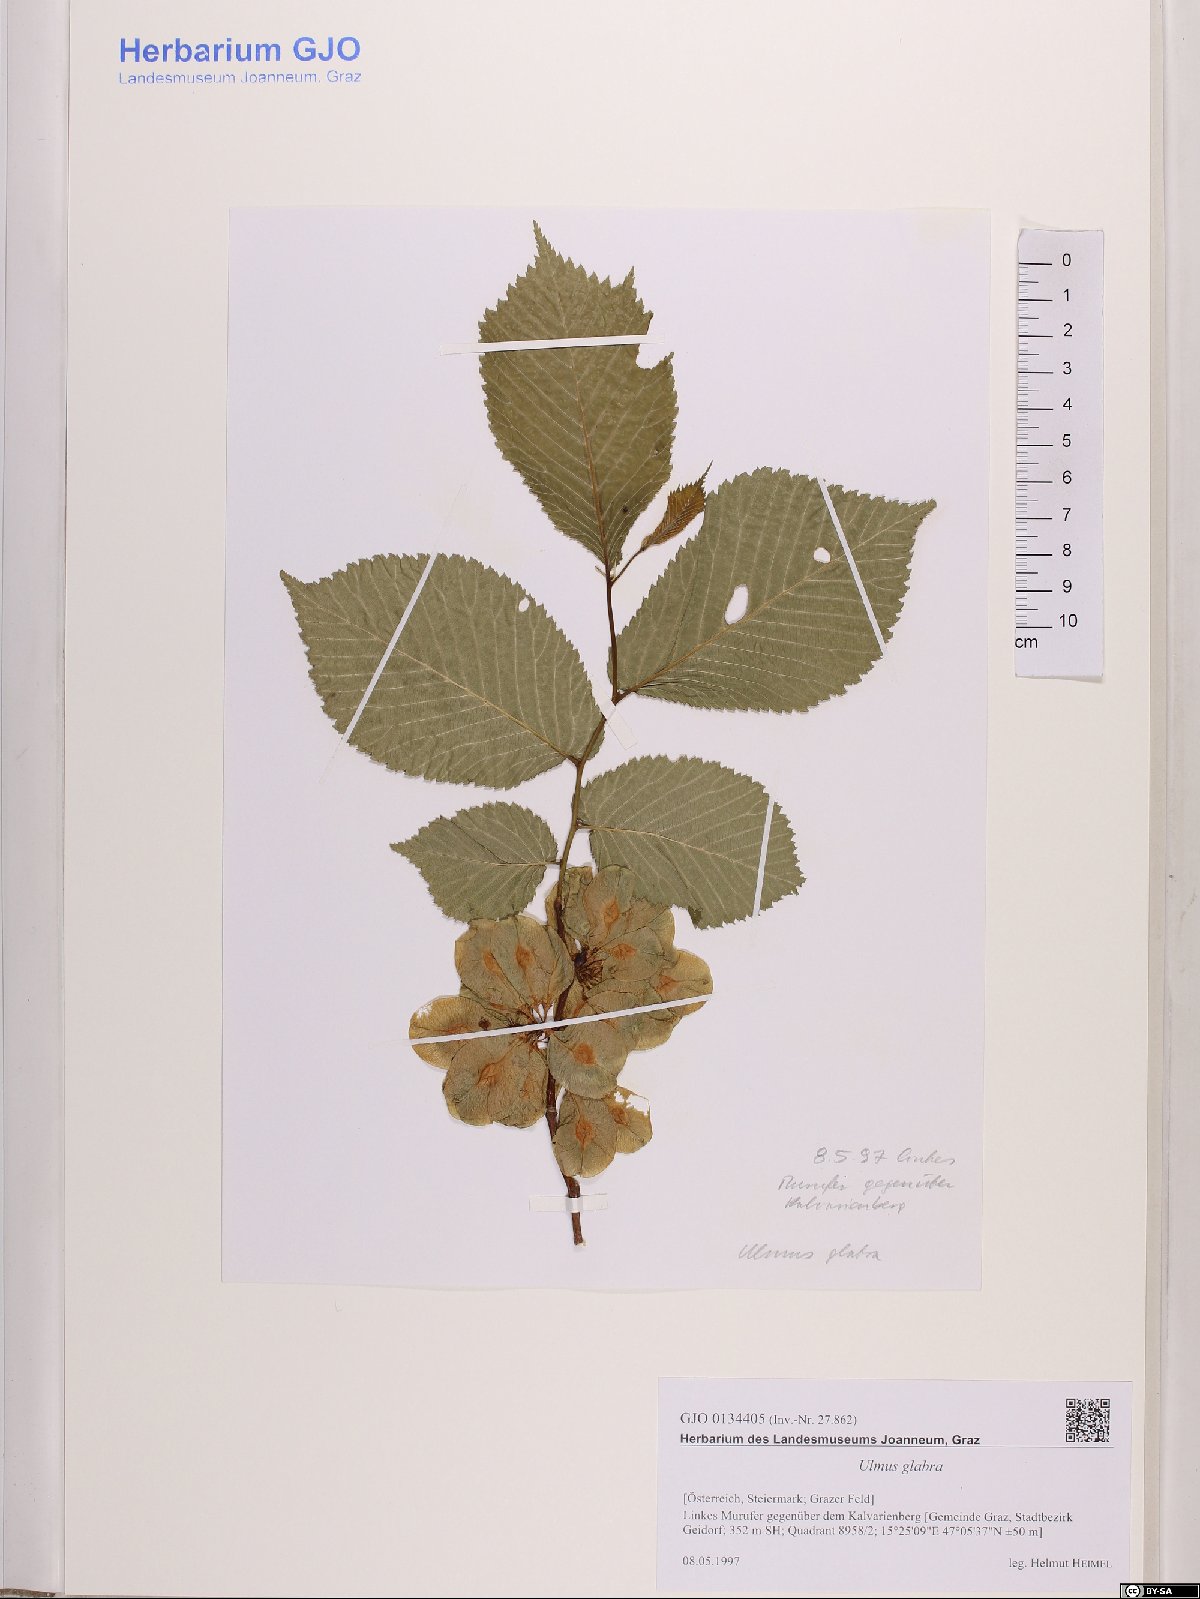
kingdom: Plantae
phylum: Tracheophyta
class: Magnoliopsida
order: Rosales
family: Ulmaceae
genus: Ulmus
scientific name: Ulmus glabra
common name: Wych elm
